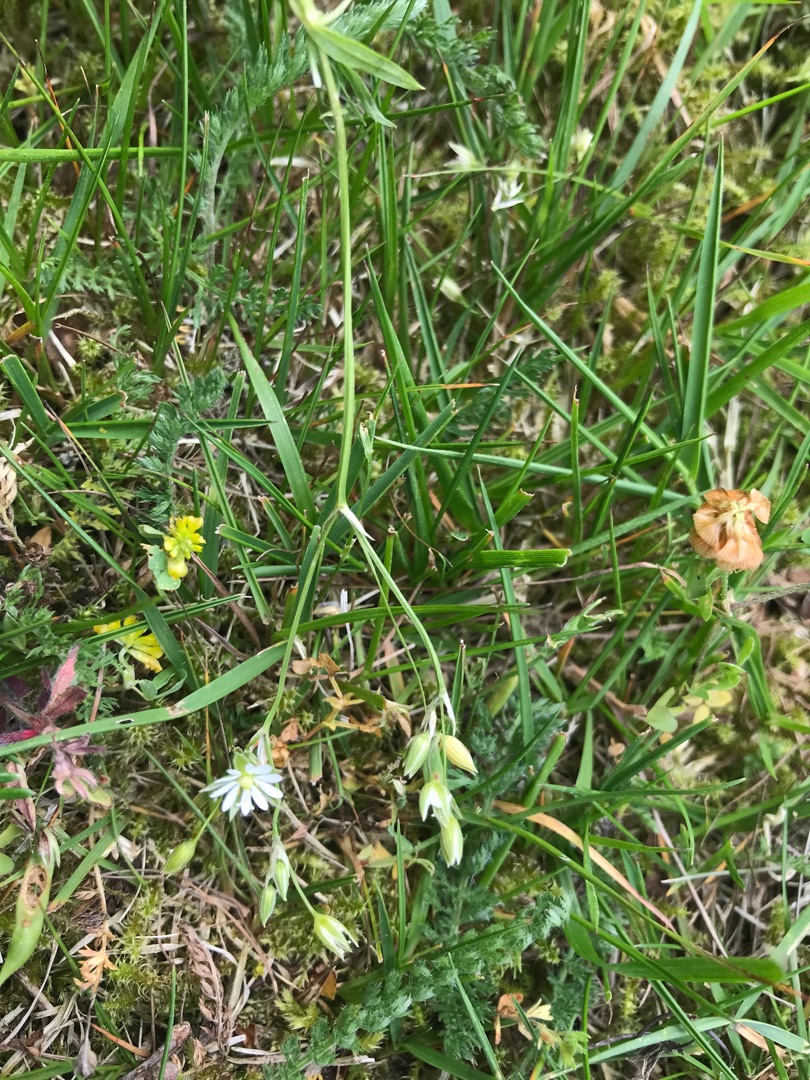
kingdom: Plantae
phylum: Tracheophyta
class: Magnoliopsida
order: Caryophyllales
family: Caryophyllaceae
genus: Stellaria
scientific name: Stellaria graminea
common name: Græsbladet fladstjerne
